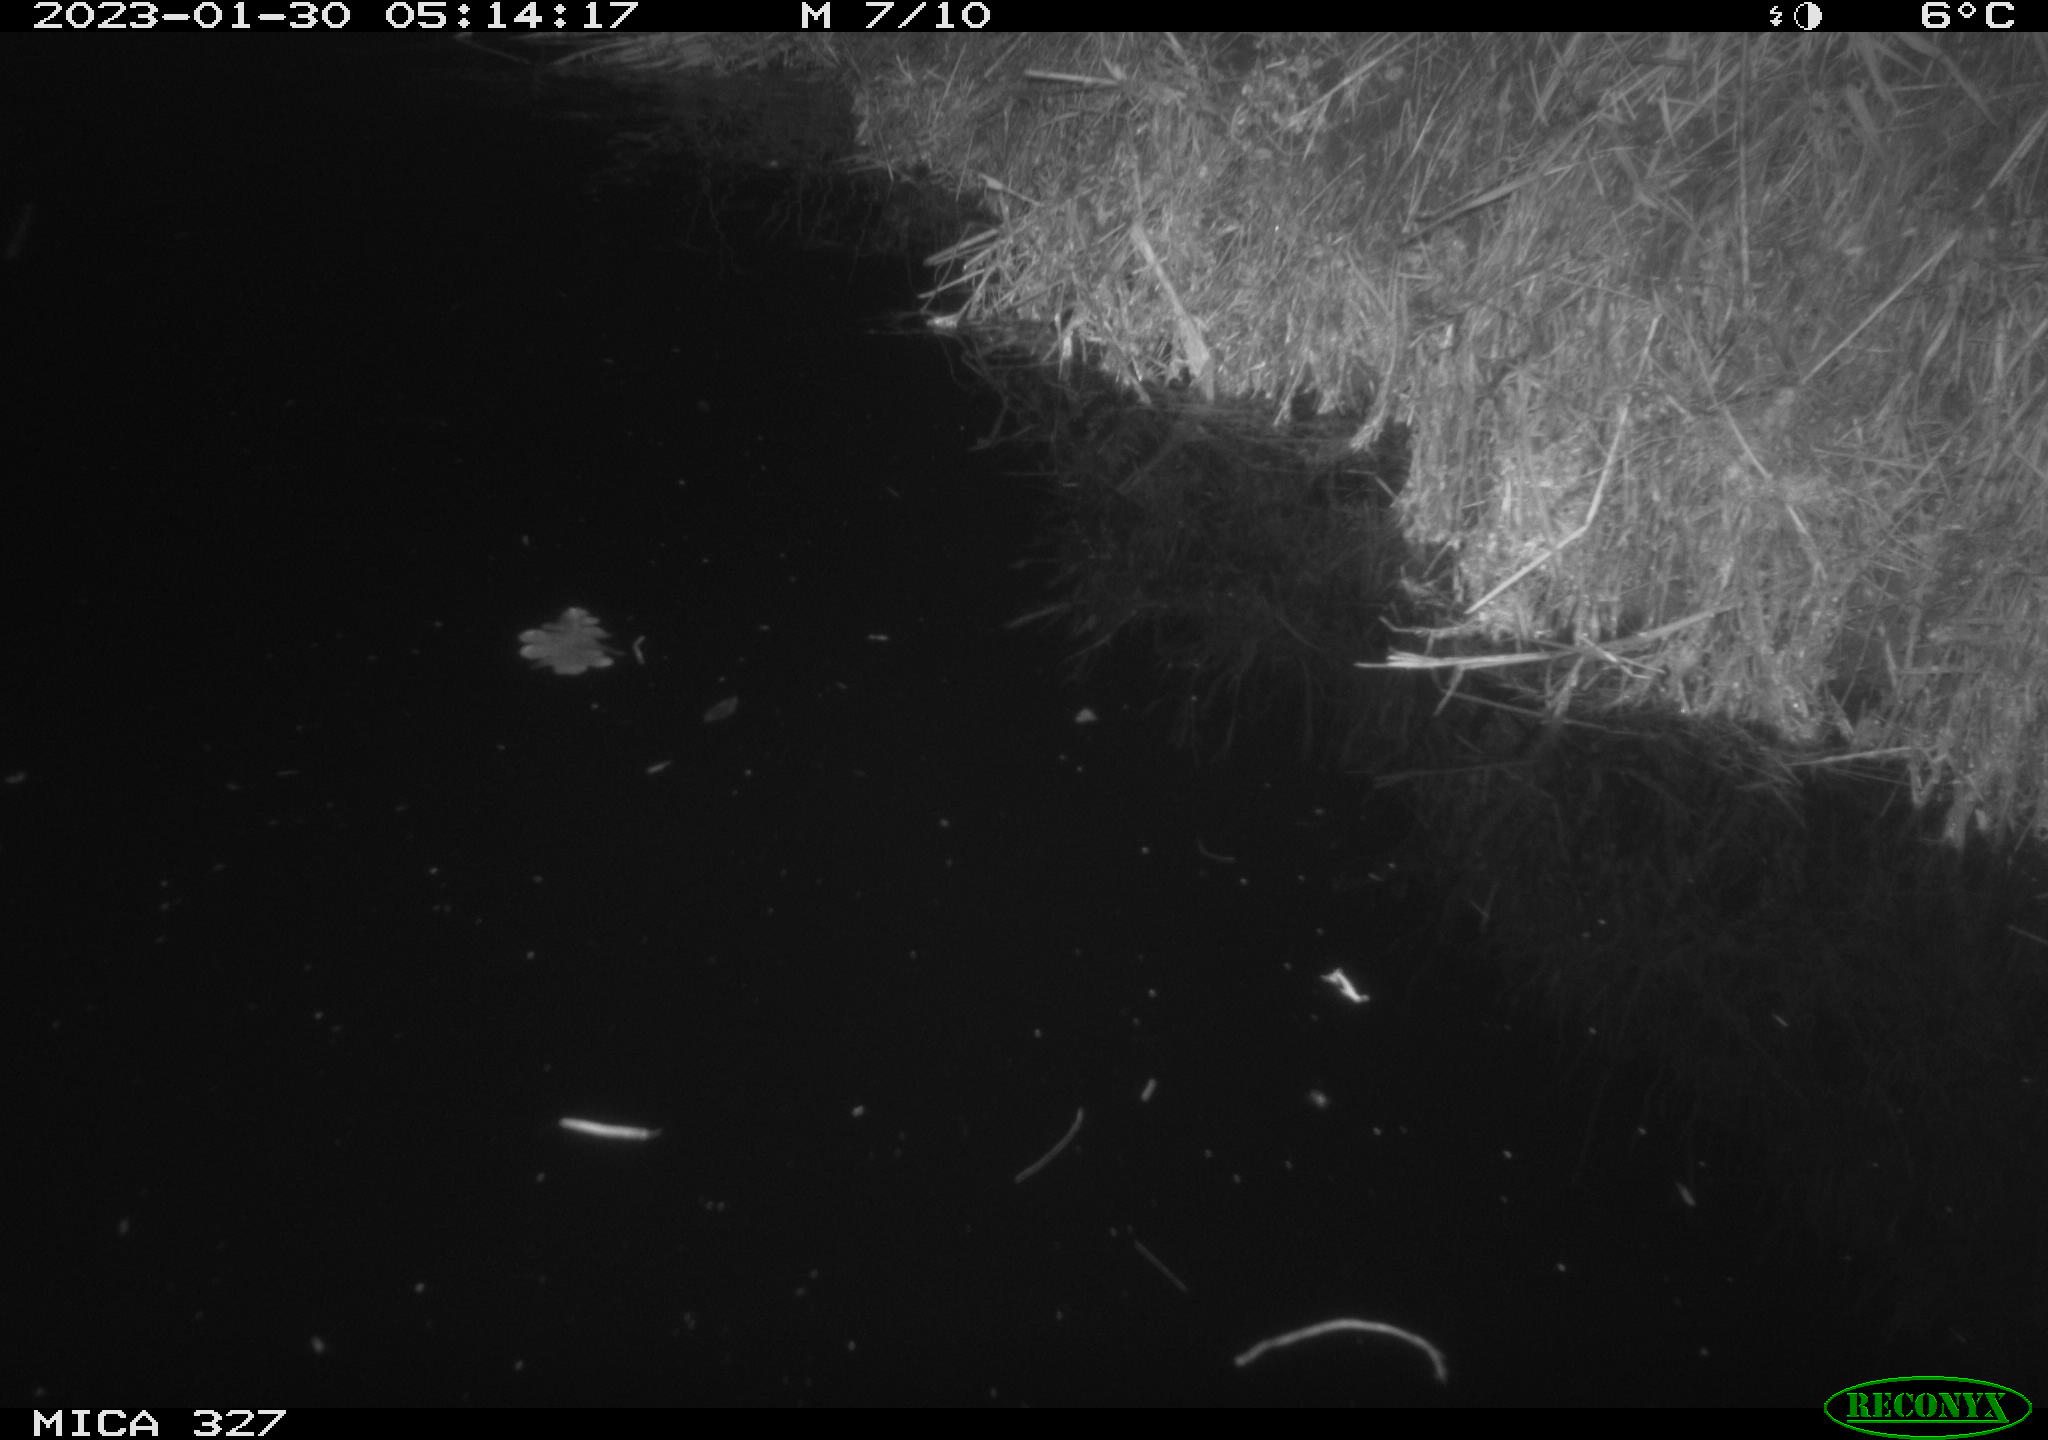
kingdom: Animalia
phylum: Chordata
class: Mammalia
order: Rodentia
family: Cricetidae
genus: Ondatra
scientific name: Ondatra zibethicus
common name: Muskrat
